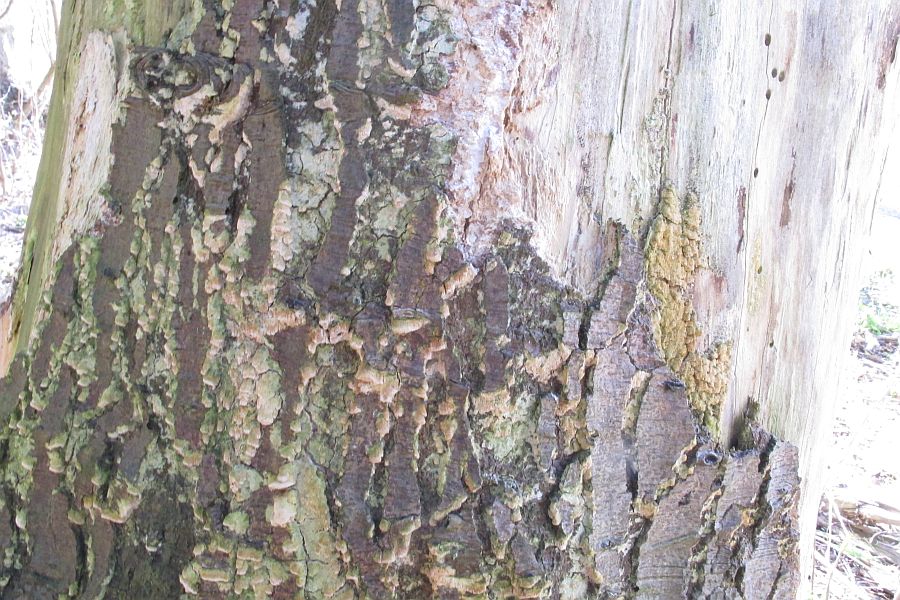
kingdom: Fungi
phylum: Basidiomycota
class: Agaricomycetes
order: Hymenochaetales
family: Schizoporaceae
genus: Xylodon
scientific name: Xylodon flaviporus
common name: gulporet tandsvamp
